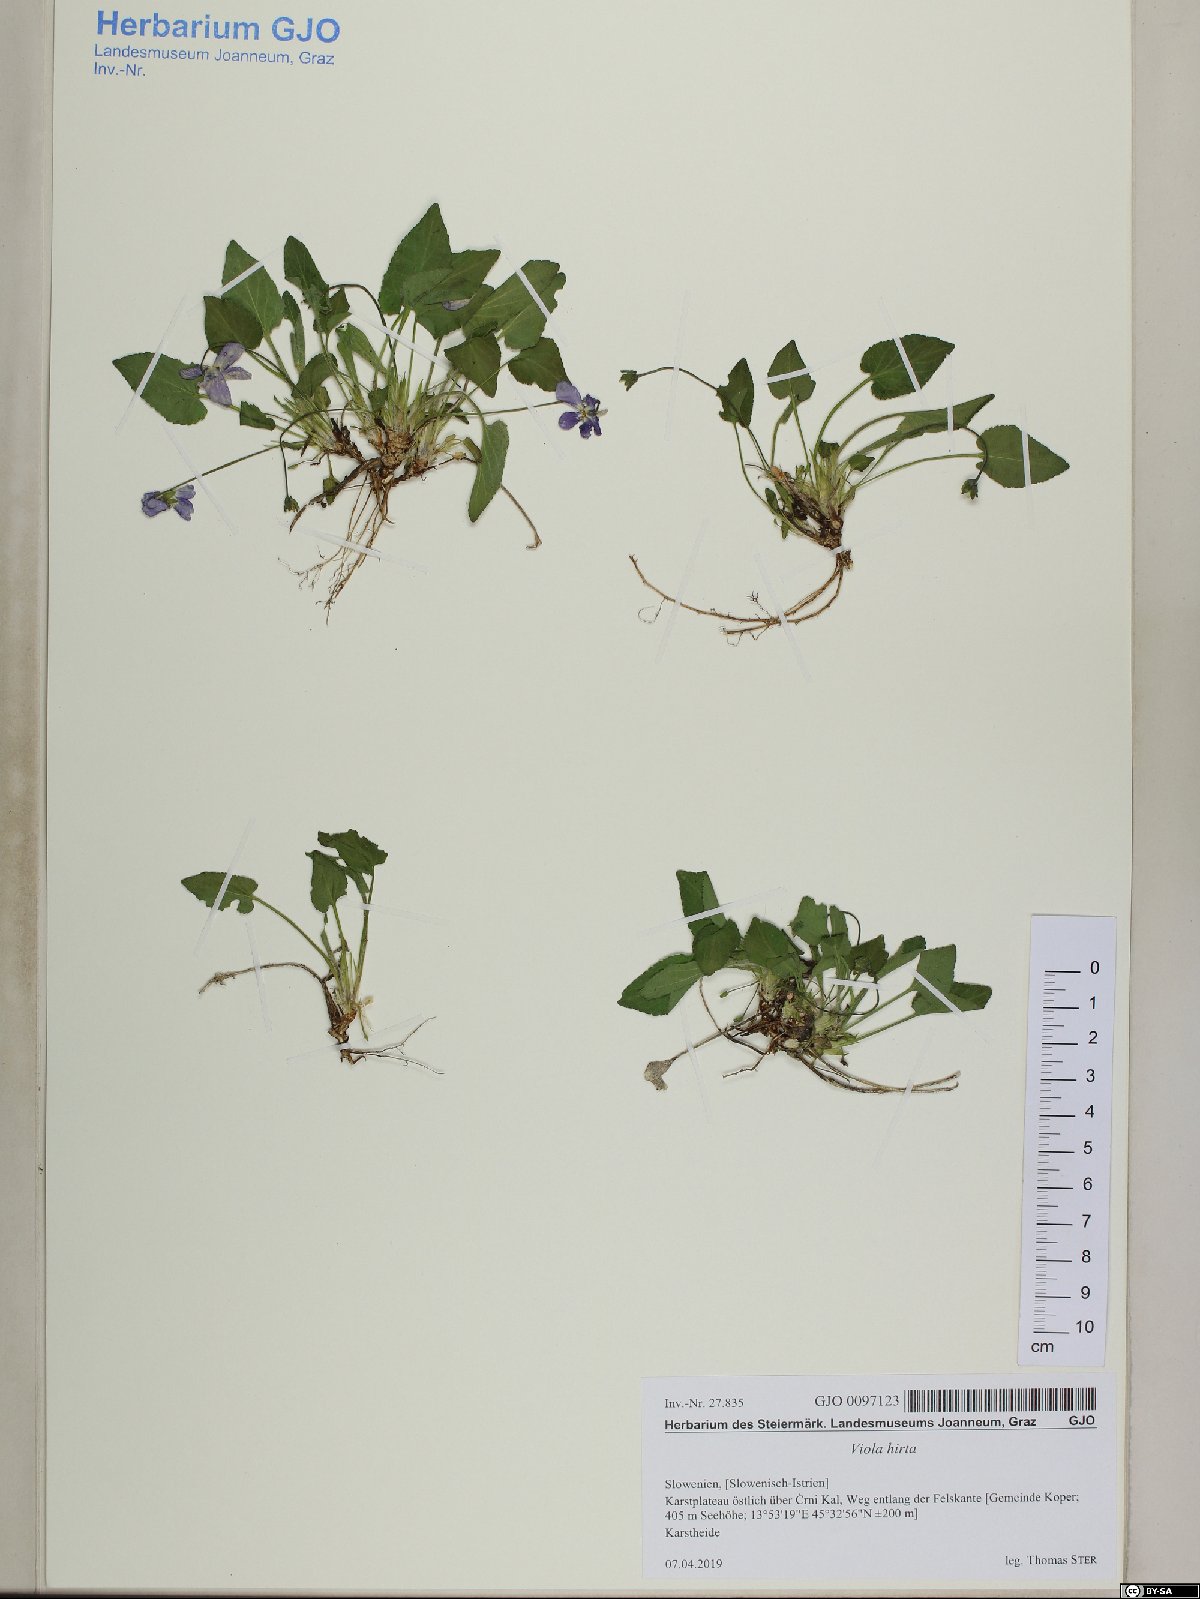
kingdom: Plantae
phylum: Tracheophyta
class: Magnoliopsida
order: Malpighiales
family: Violaceae
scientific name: Violaceae
